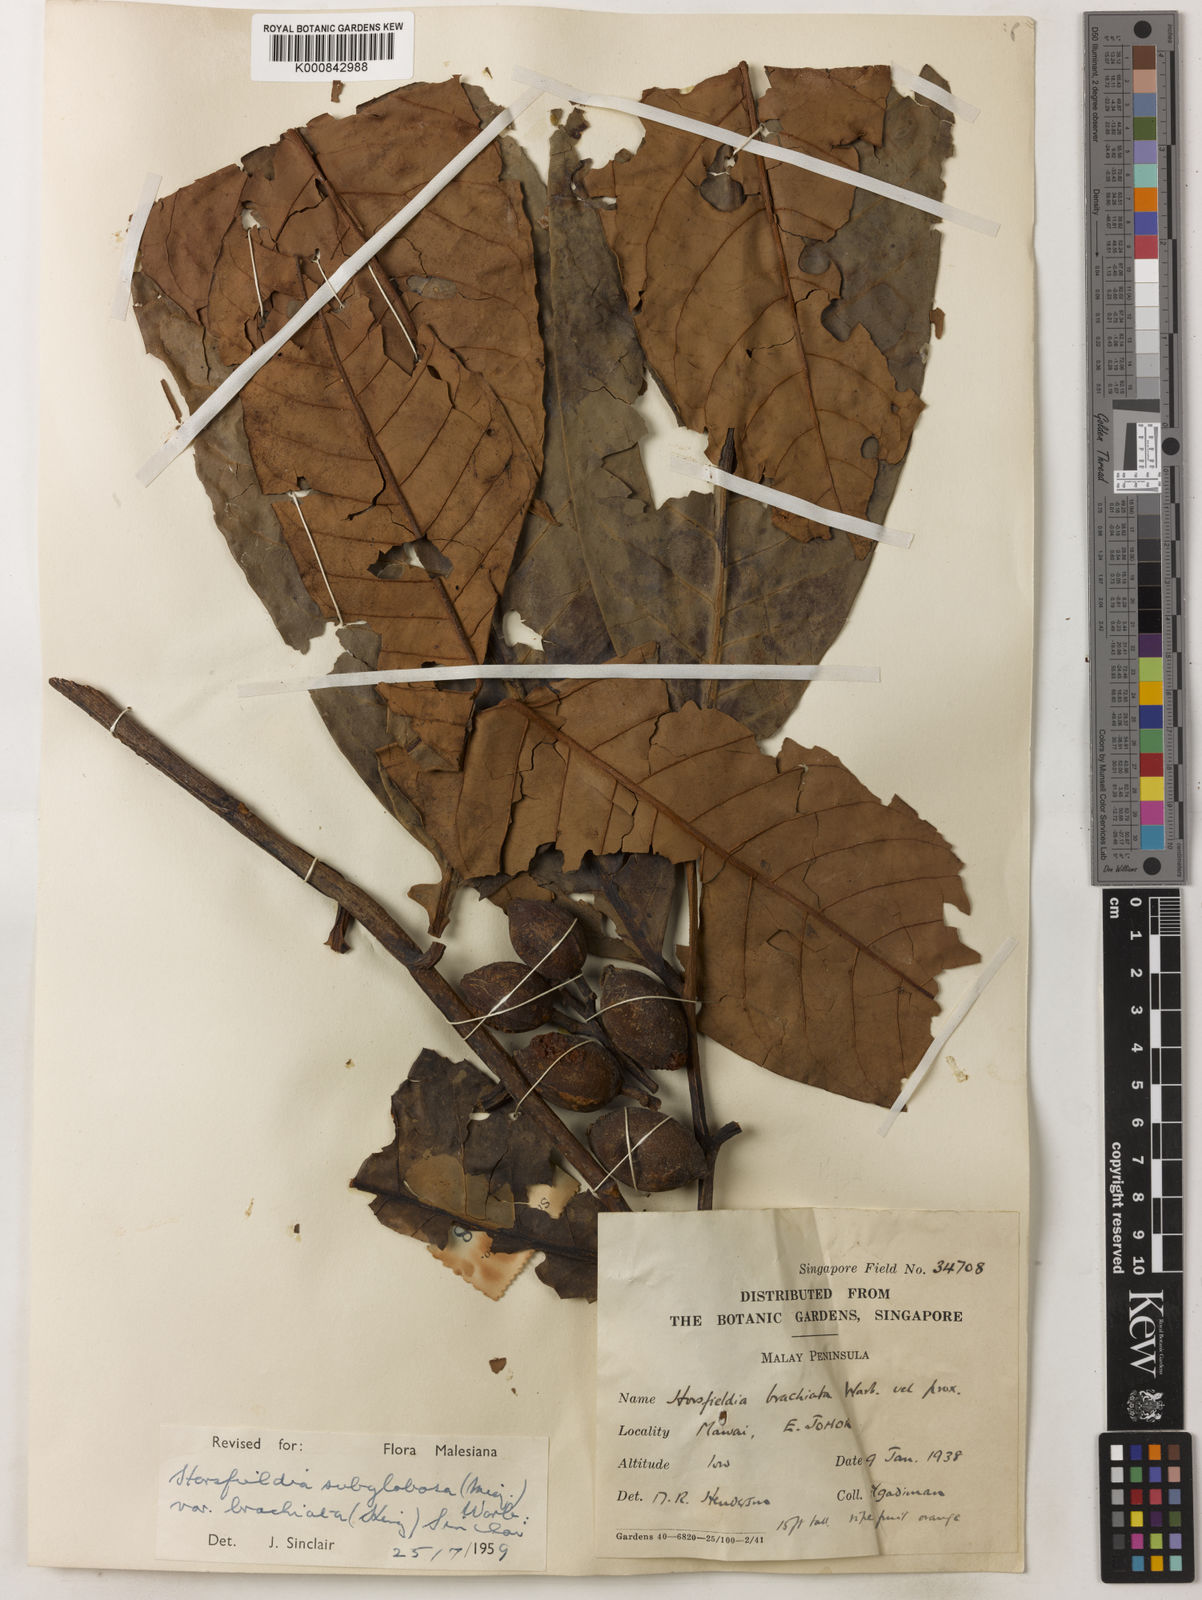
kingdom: Plantae
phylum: Tracheophyta
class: Magnoliopsida
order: Magnoliales
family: Myristicaceae
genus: Horsfieldia
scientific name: Horsfieldia brachiata
